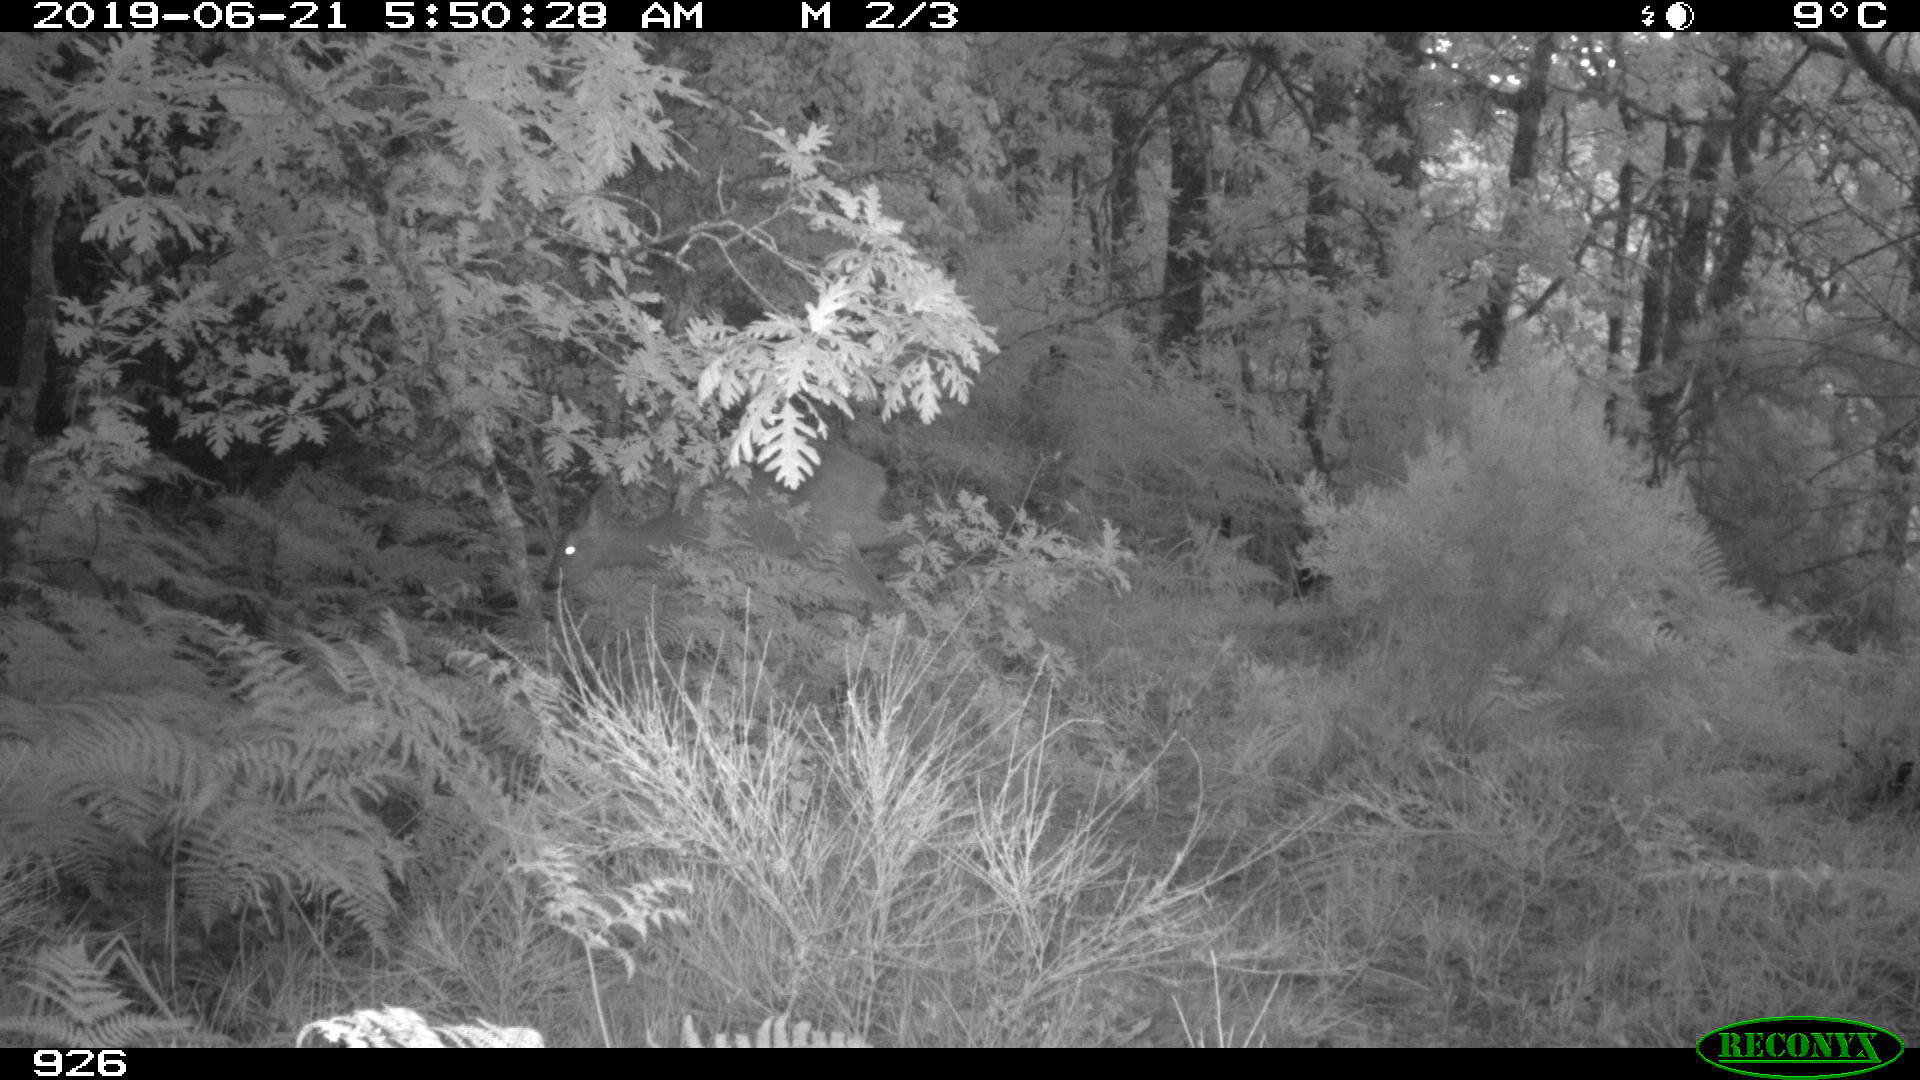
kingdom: Animalia
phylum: Chordata
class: Mammalia
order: Artiodactyla
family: Cervidae
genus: Capreolus
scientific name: Capreolus capreolus
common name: Western roe deer
